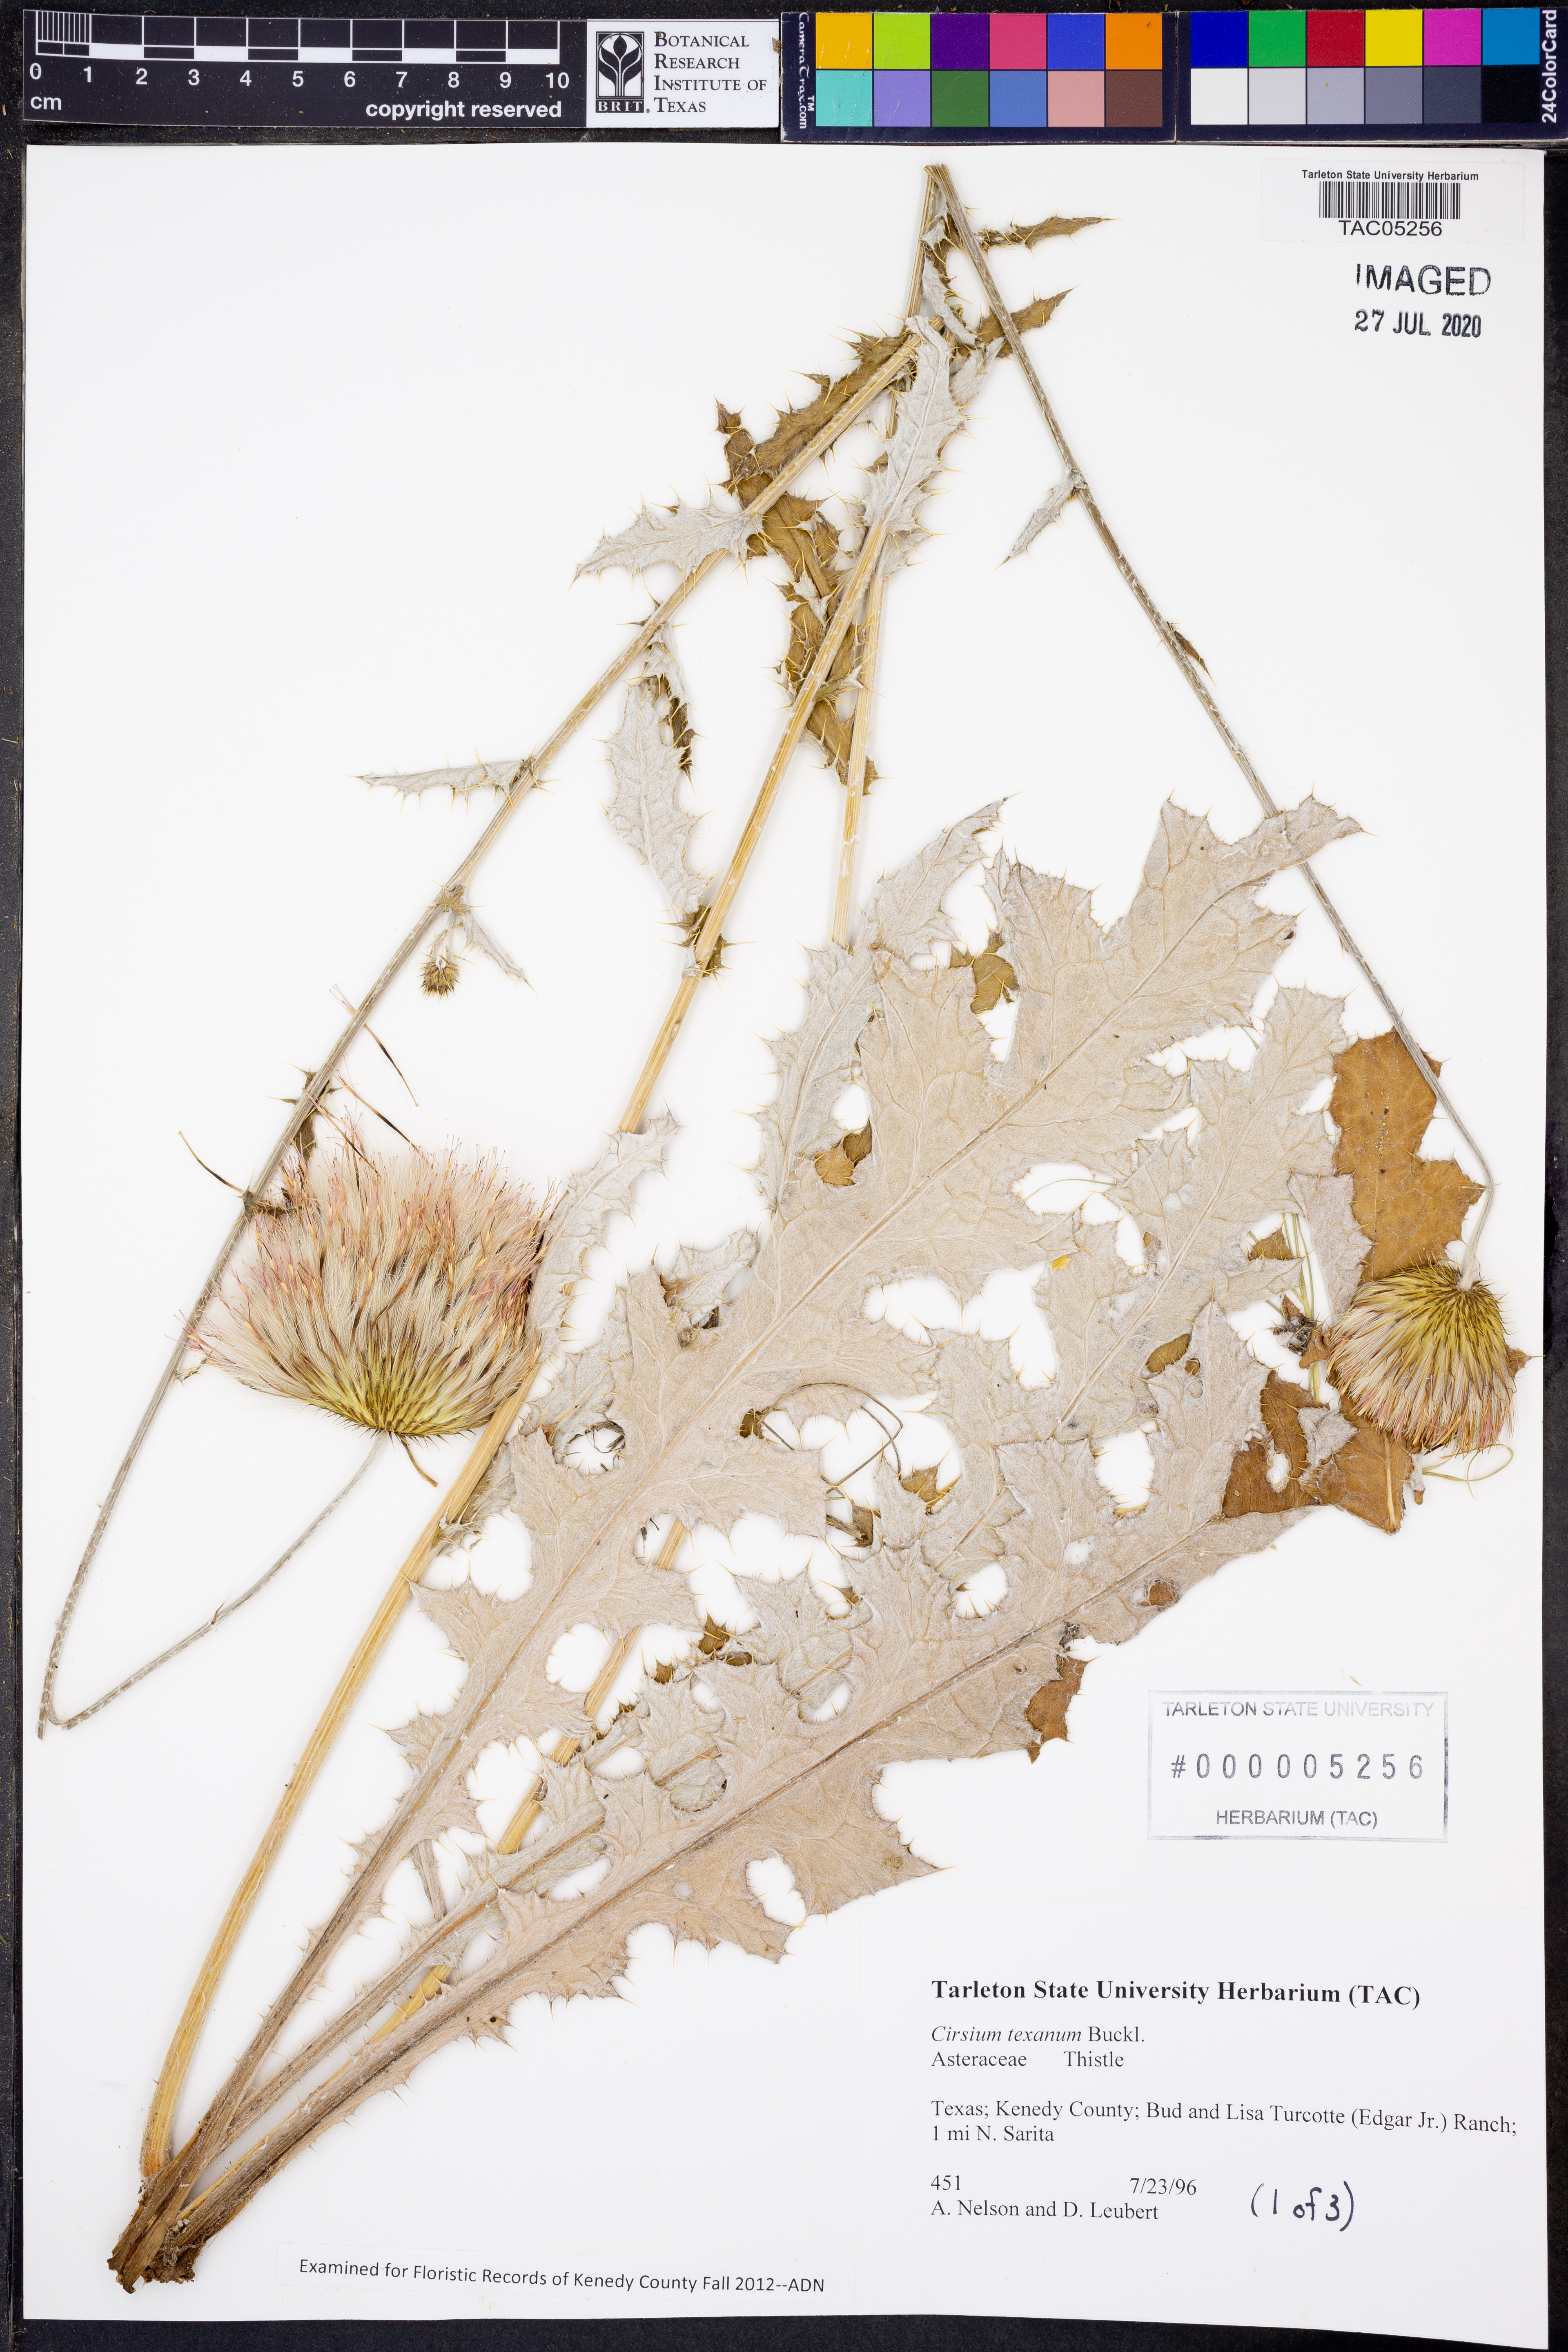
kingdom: Plantae
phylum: Tracheophyta
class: Magnoliopsida
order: Asterales
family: Asteraceae
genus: Cirsium
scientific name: Cirsium texanum
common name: Texas purple thistle
